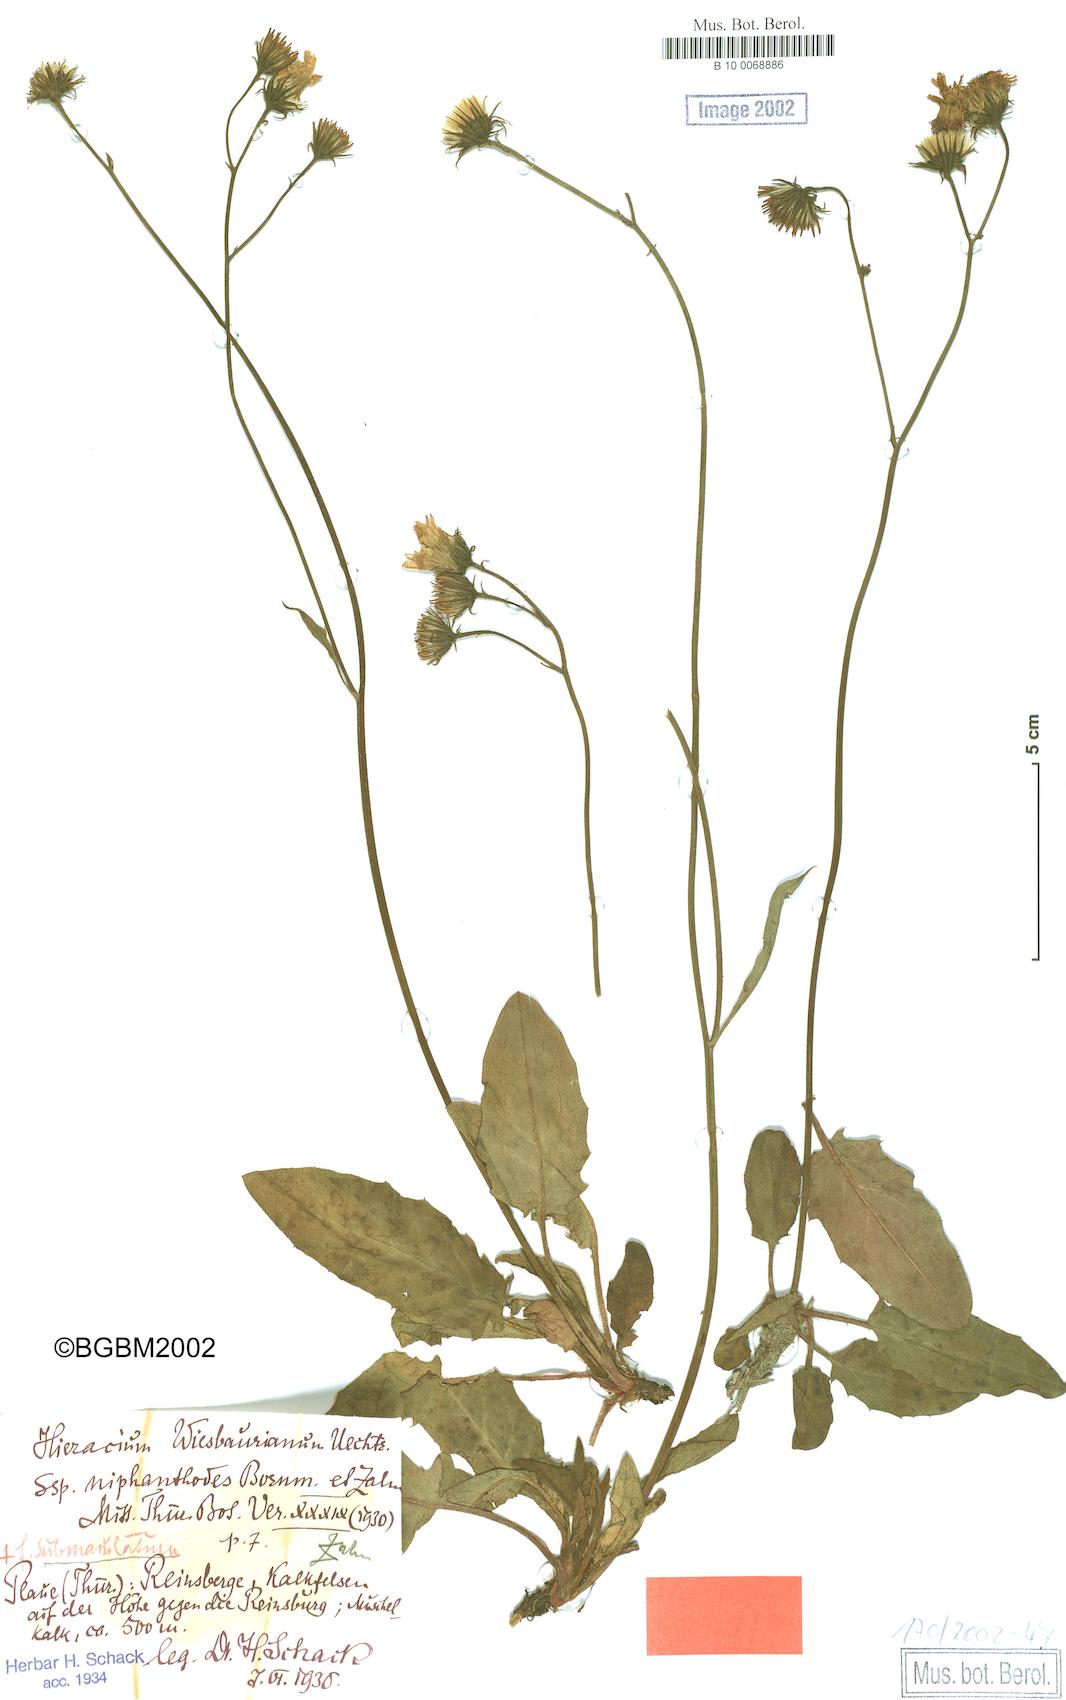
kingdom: Plantae
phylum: Tracheophyta
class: Magnoliopsida
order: Asterales
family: Asteraceae
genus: Hieracium
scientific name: Hieracium hypochoeroides
